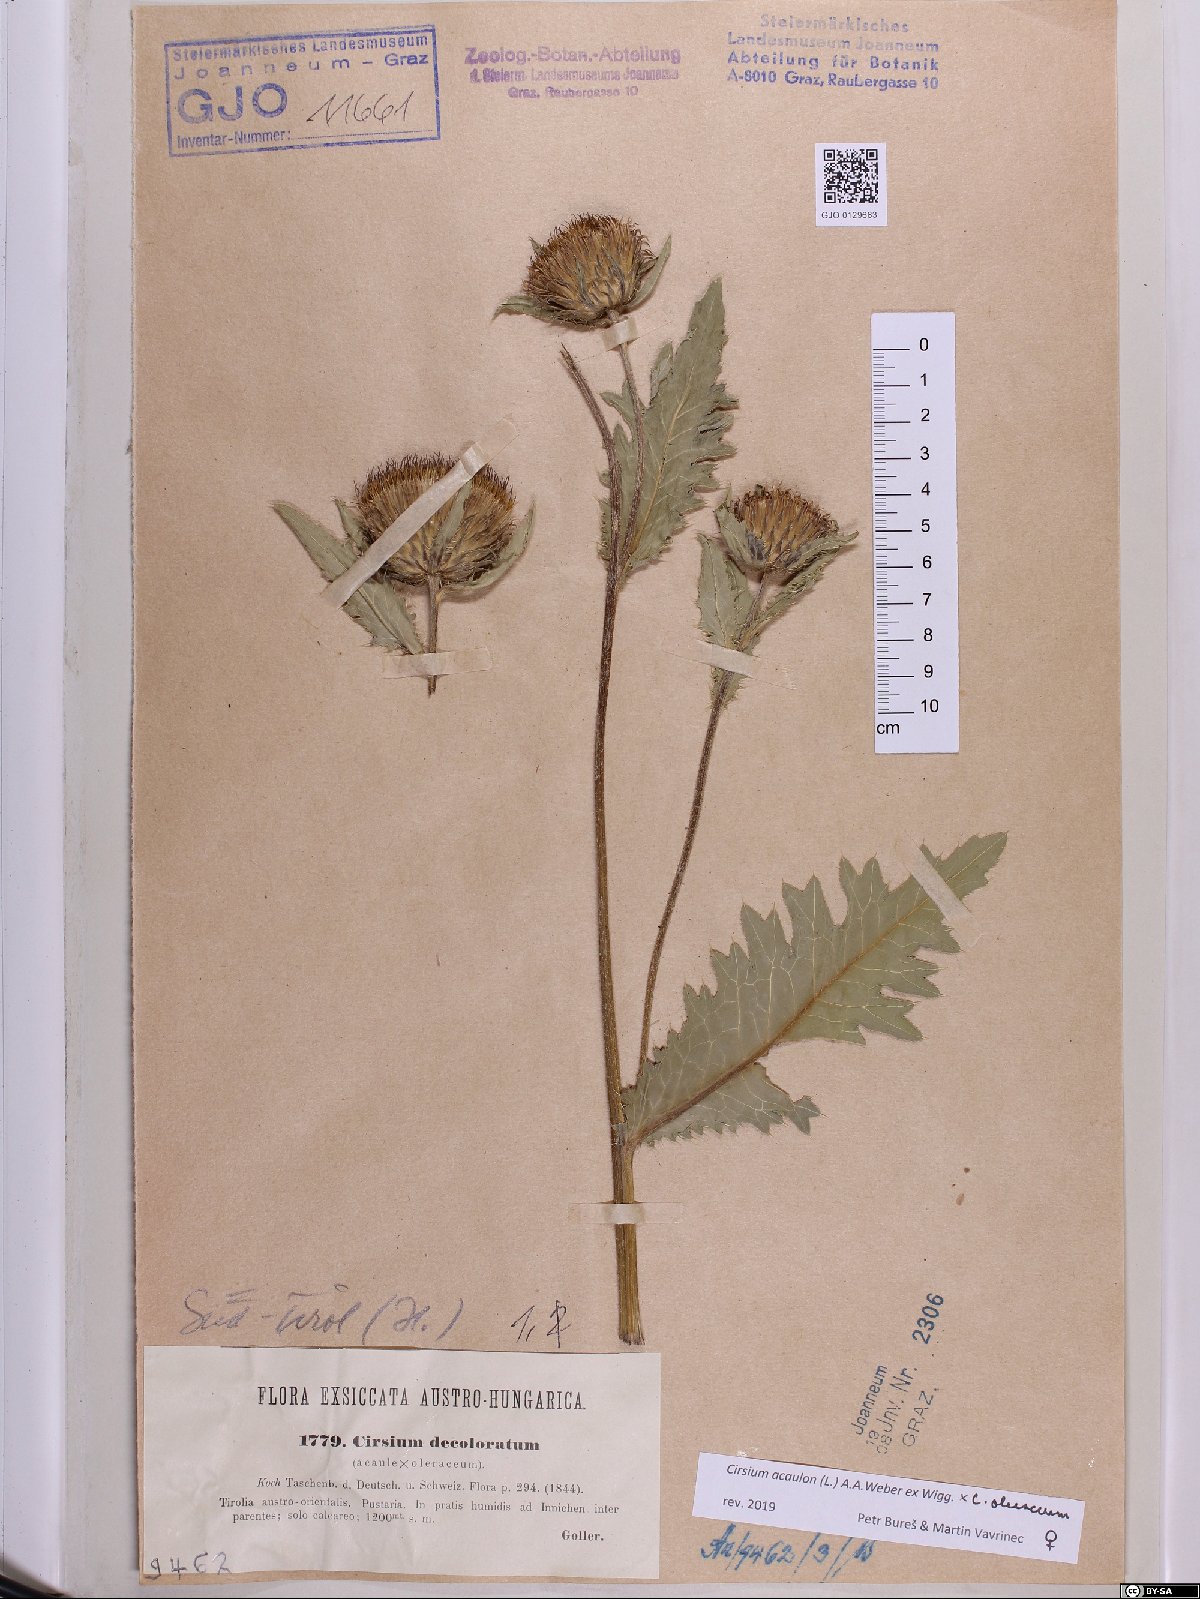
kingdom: Plantae
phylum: Tracheophyta
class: Magnoliopsida
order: Asterales
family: Asteraceae
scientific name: Asteraceae
